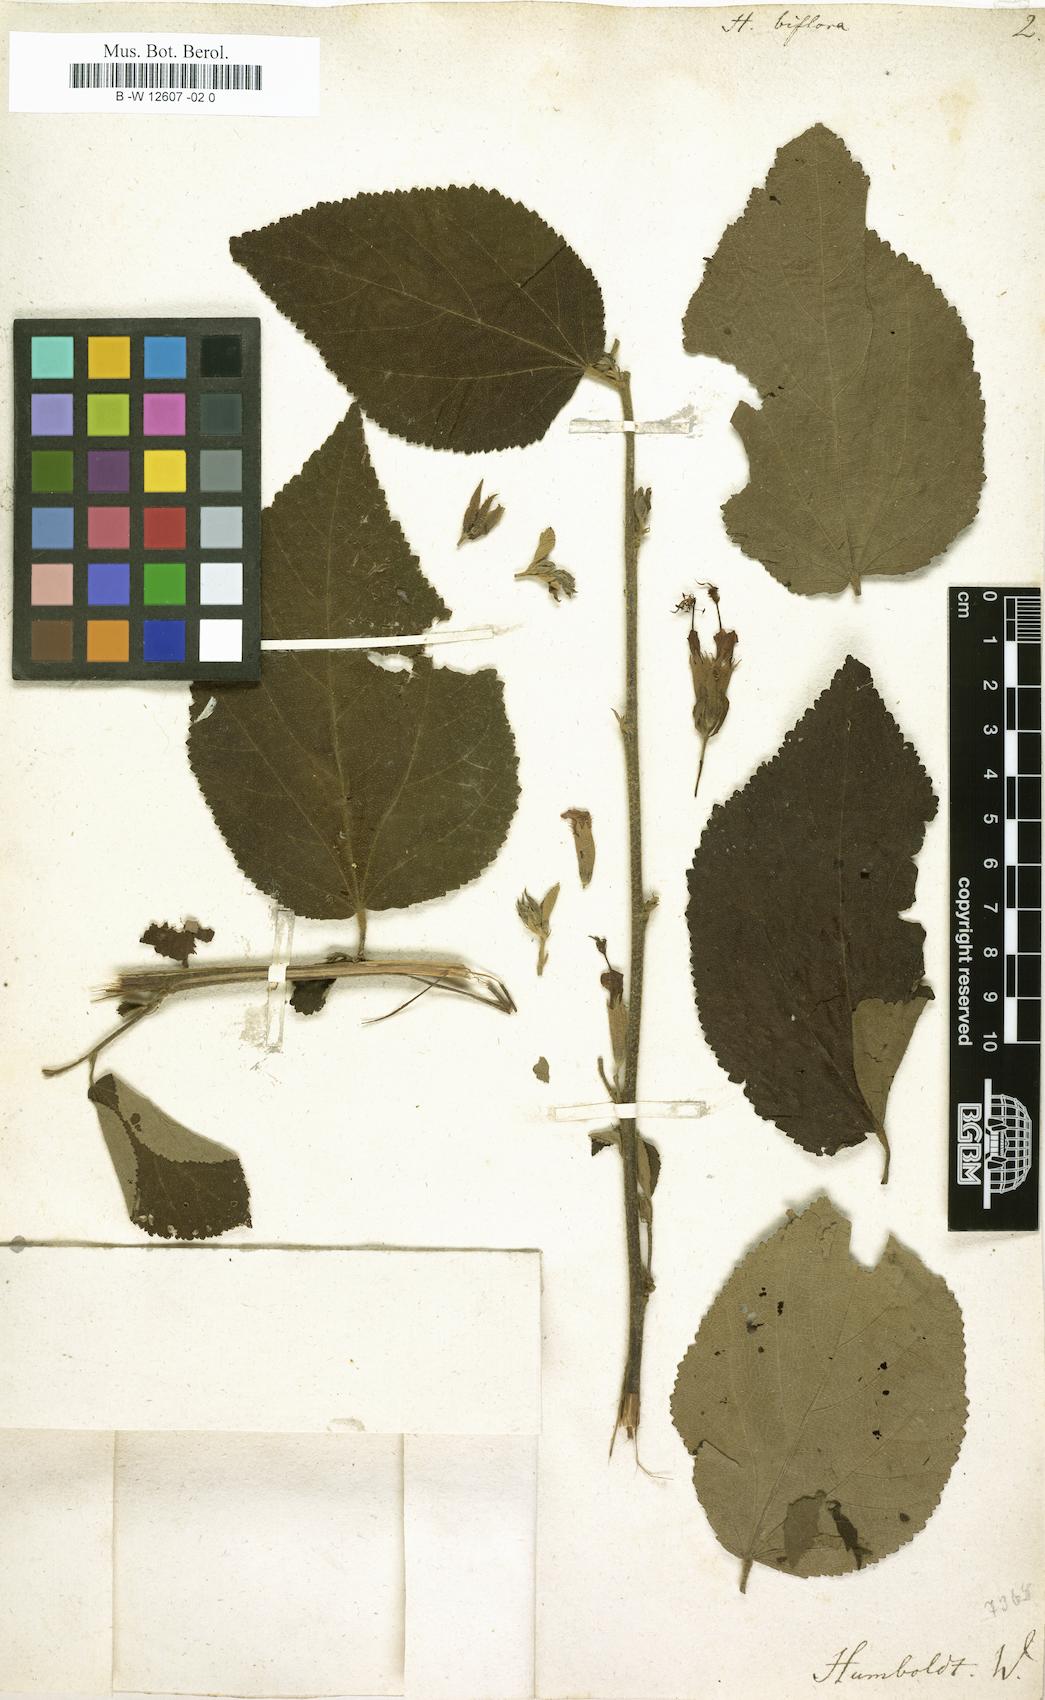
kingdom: Plantae
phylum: Tracheophyta
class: Magnoliopsida
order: Malvales
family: Malvaceae
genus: Helicteres
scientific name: Helicteres guazumifolia
